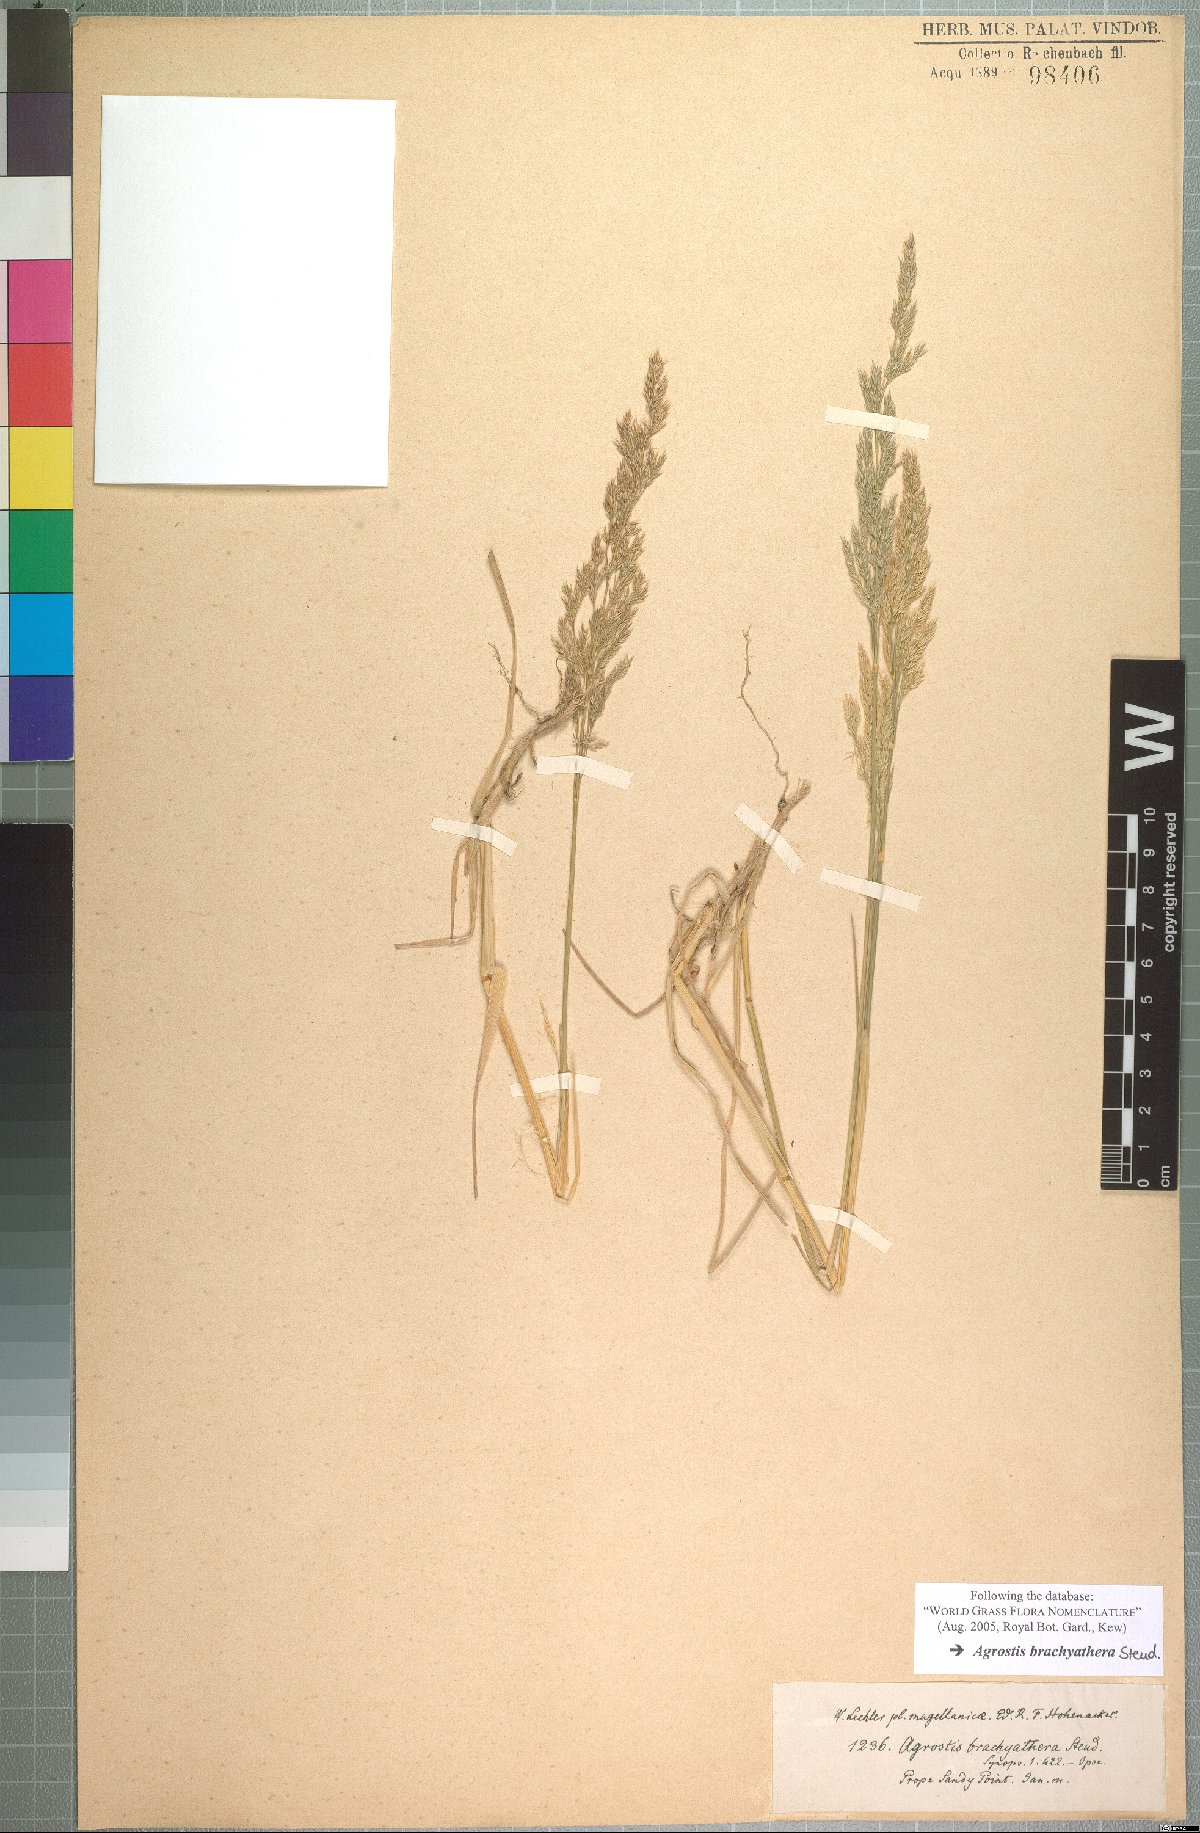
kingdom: Plantae
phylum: Tracheophyta
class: Liliopsida
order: Poales
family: Poaceae
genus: Agrostis
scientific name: Agrostis brachyathera
